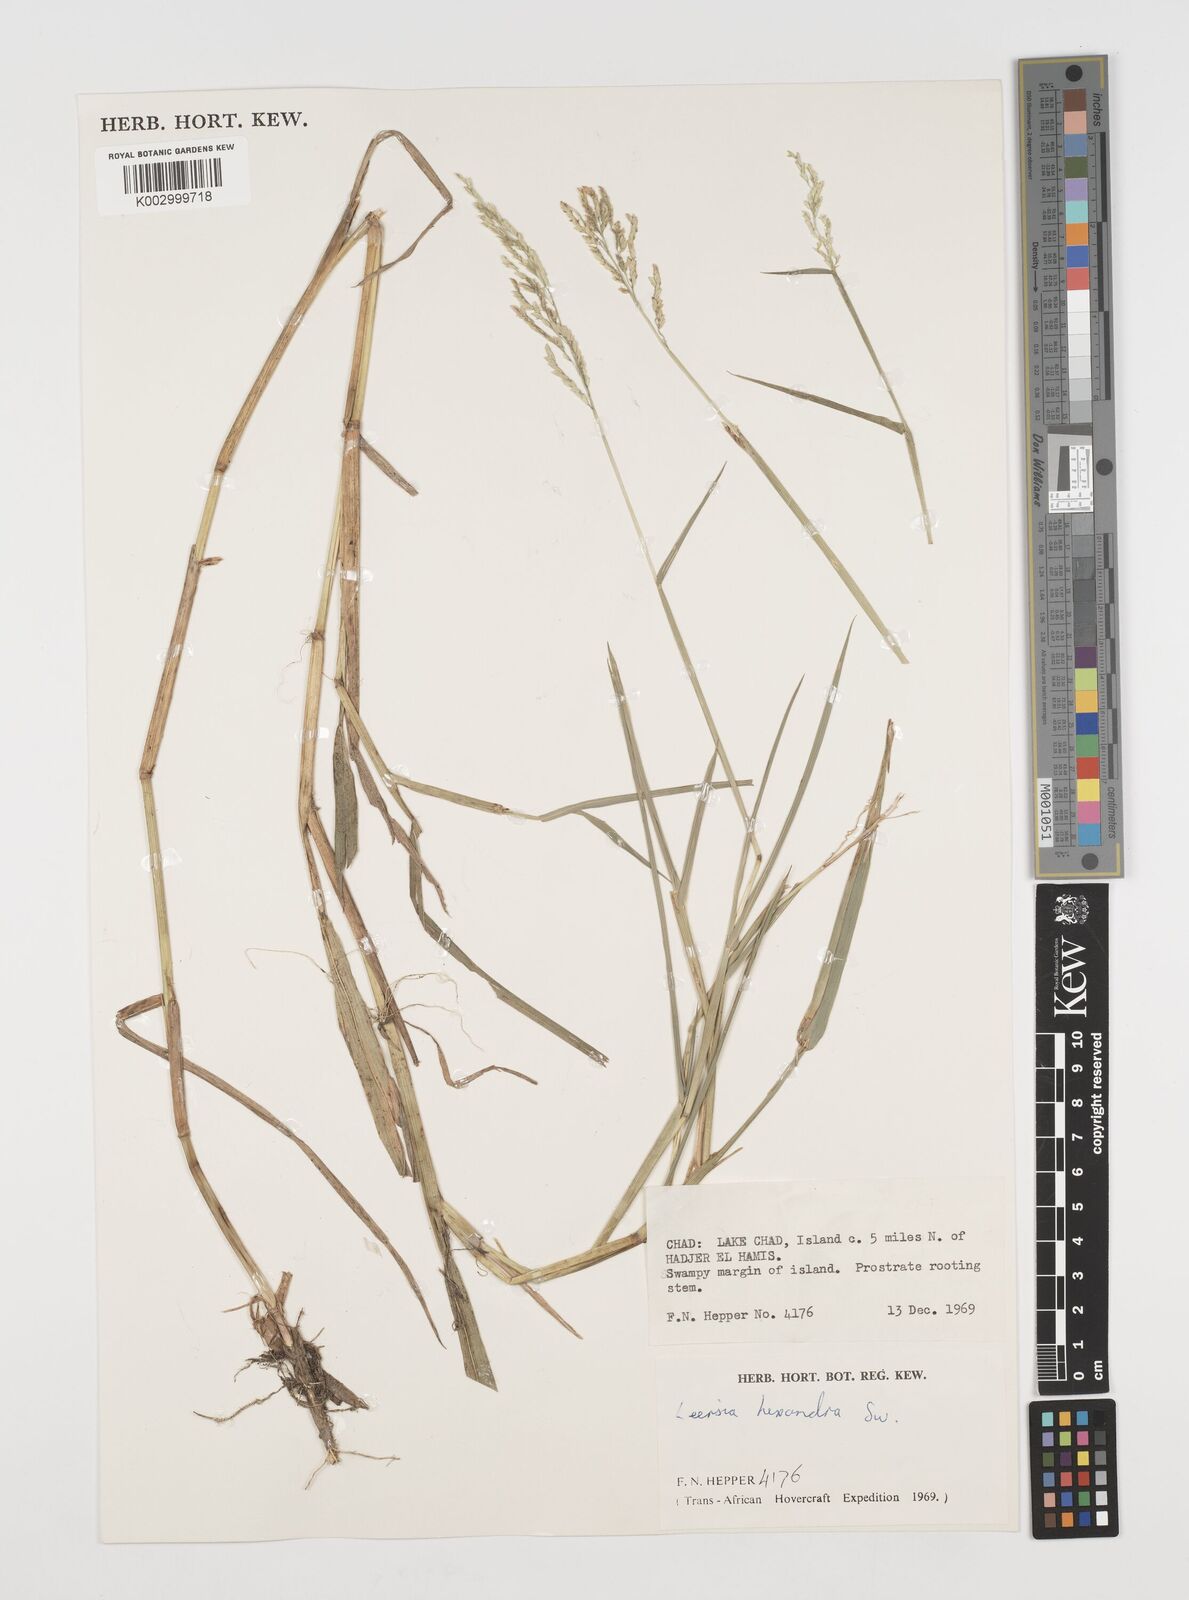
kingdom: Plantae
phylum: Tracheophyta
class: Liliopsida
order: Poales
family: Poaceae
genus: Leersia
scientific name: Leersia hexandra
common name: Southern cut grass
